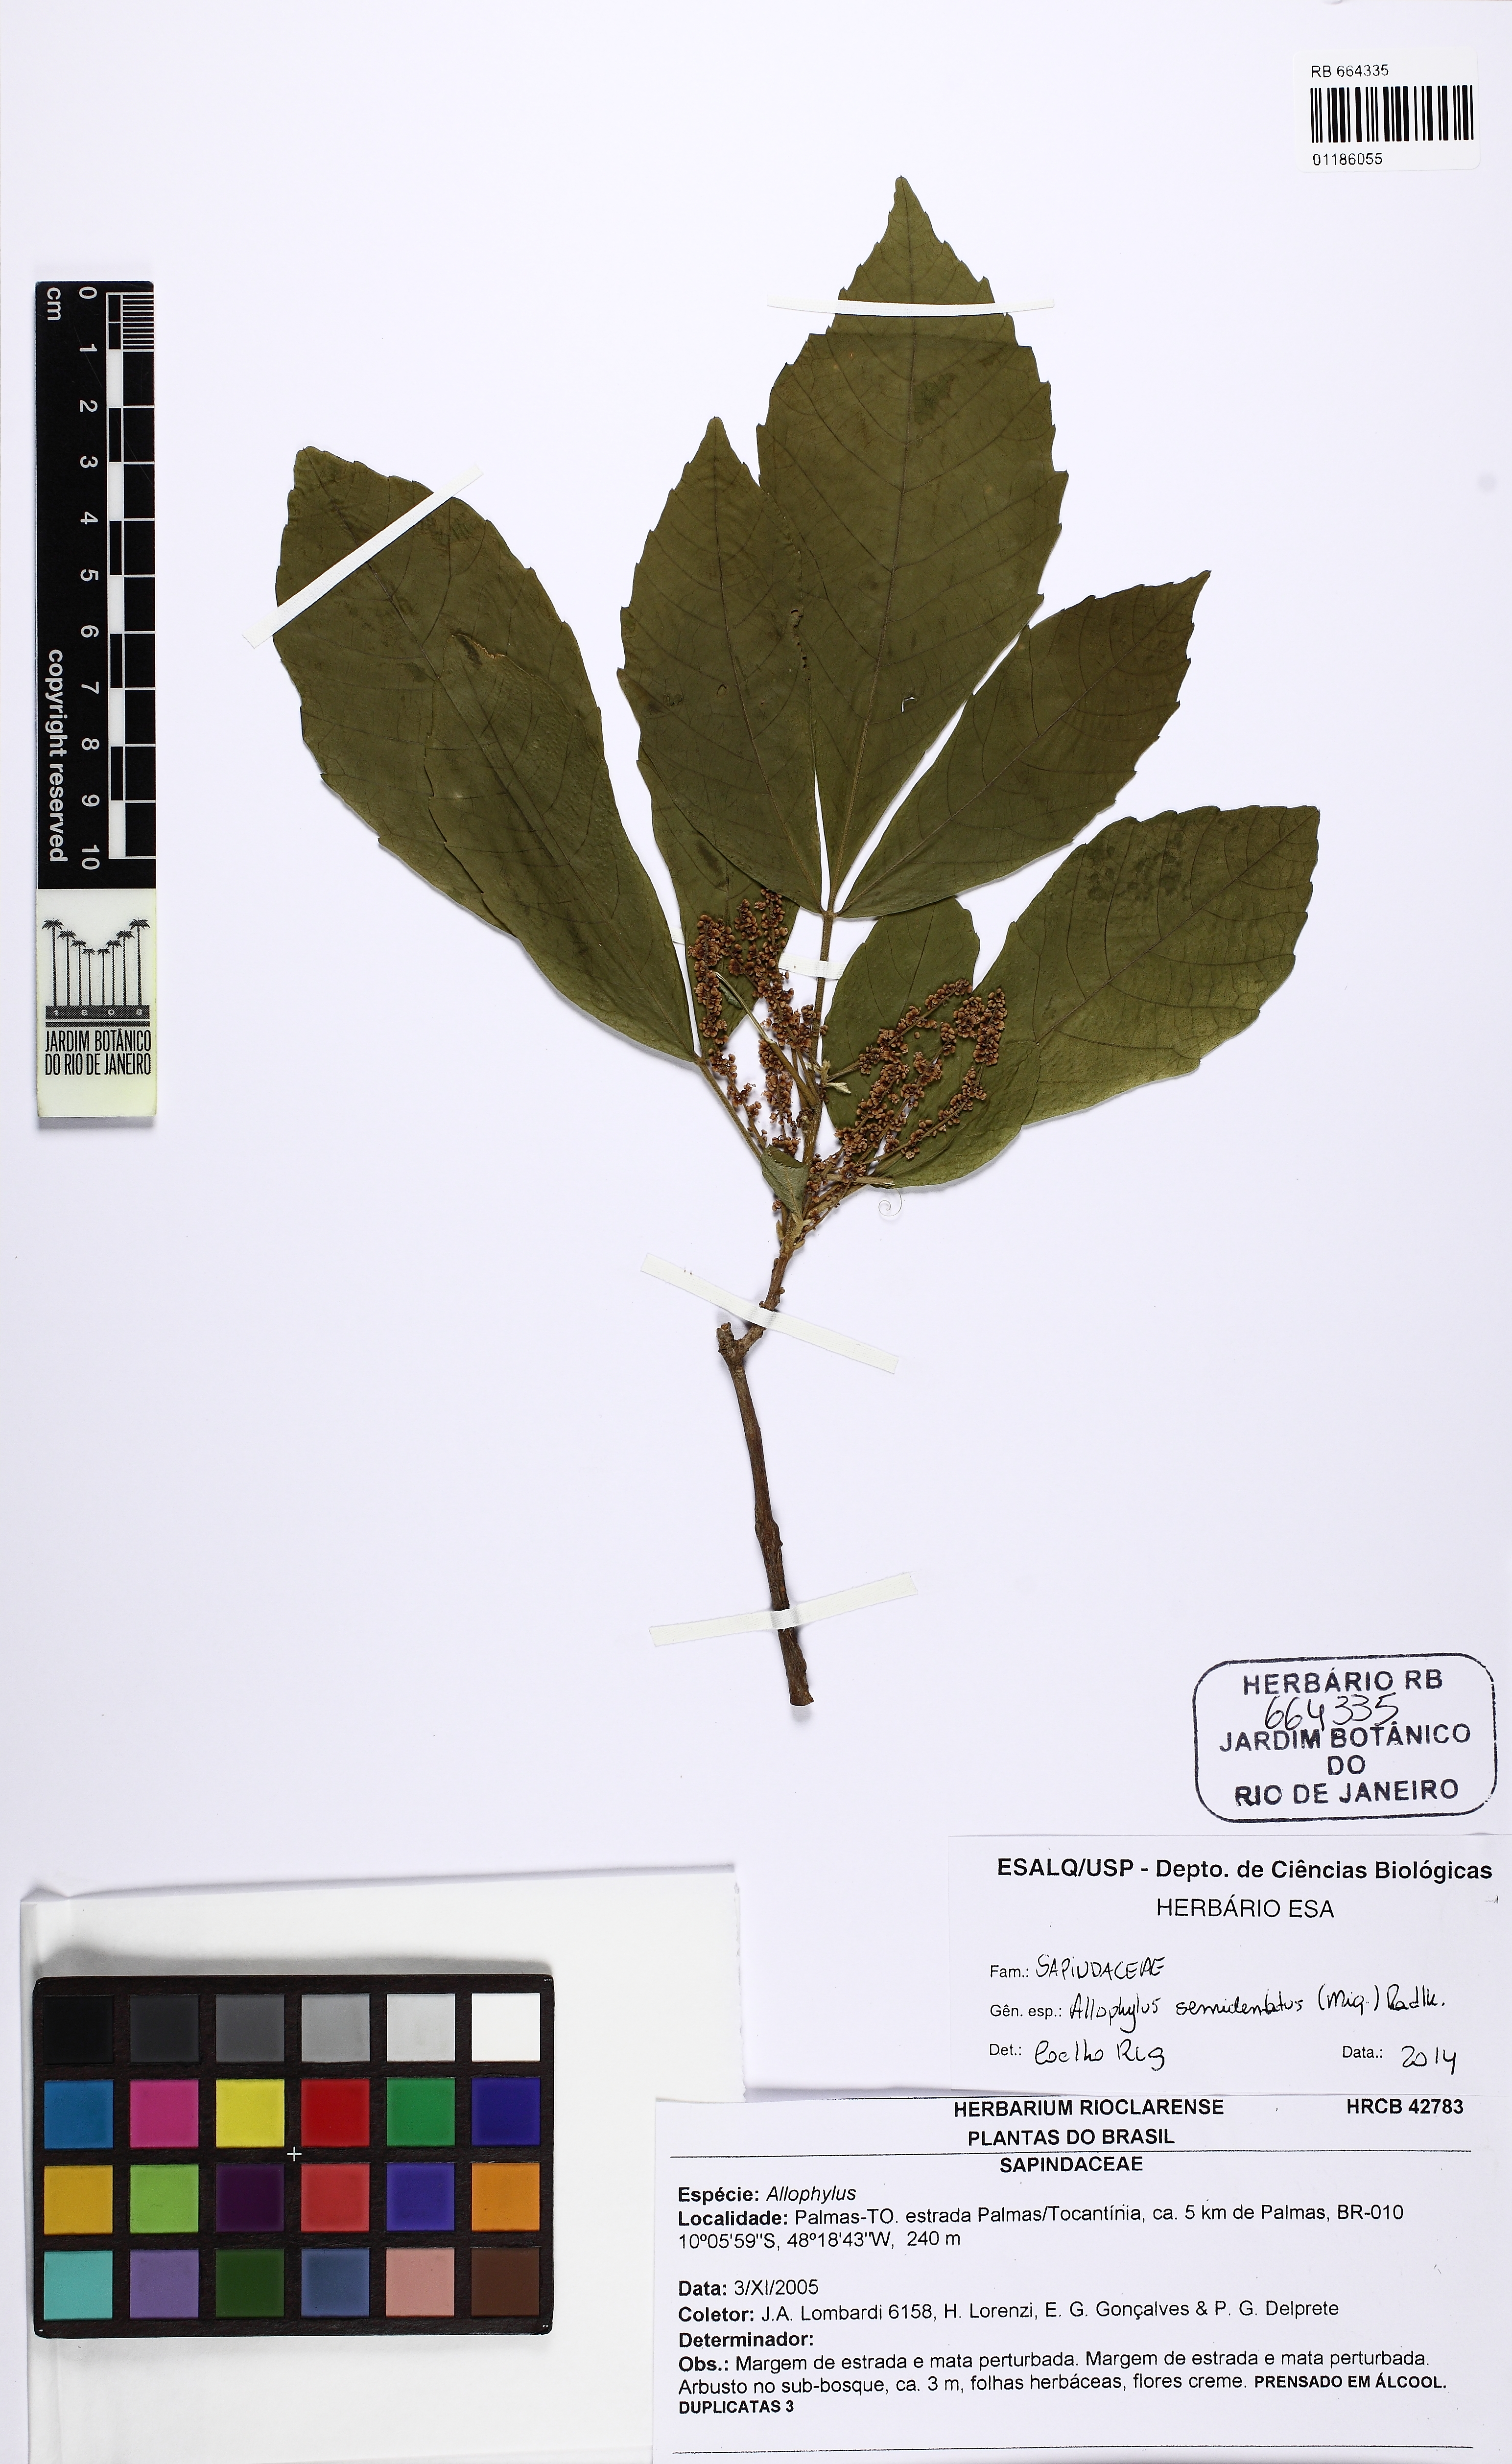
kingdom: Plantae
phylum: Tracheophyta
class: Magnoliopsida
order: Sapindales
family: Sapindaceae
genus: Allophylus
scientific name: Allophylus semidentatus
